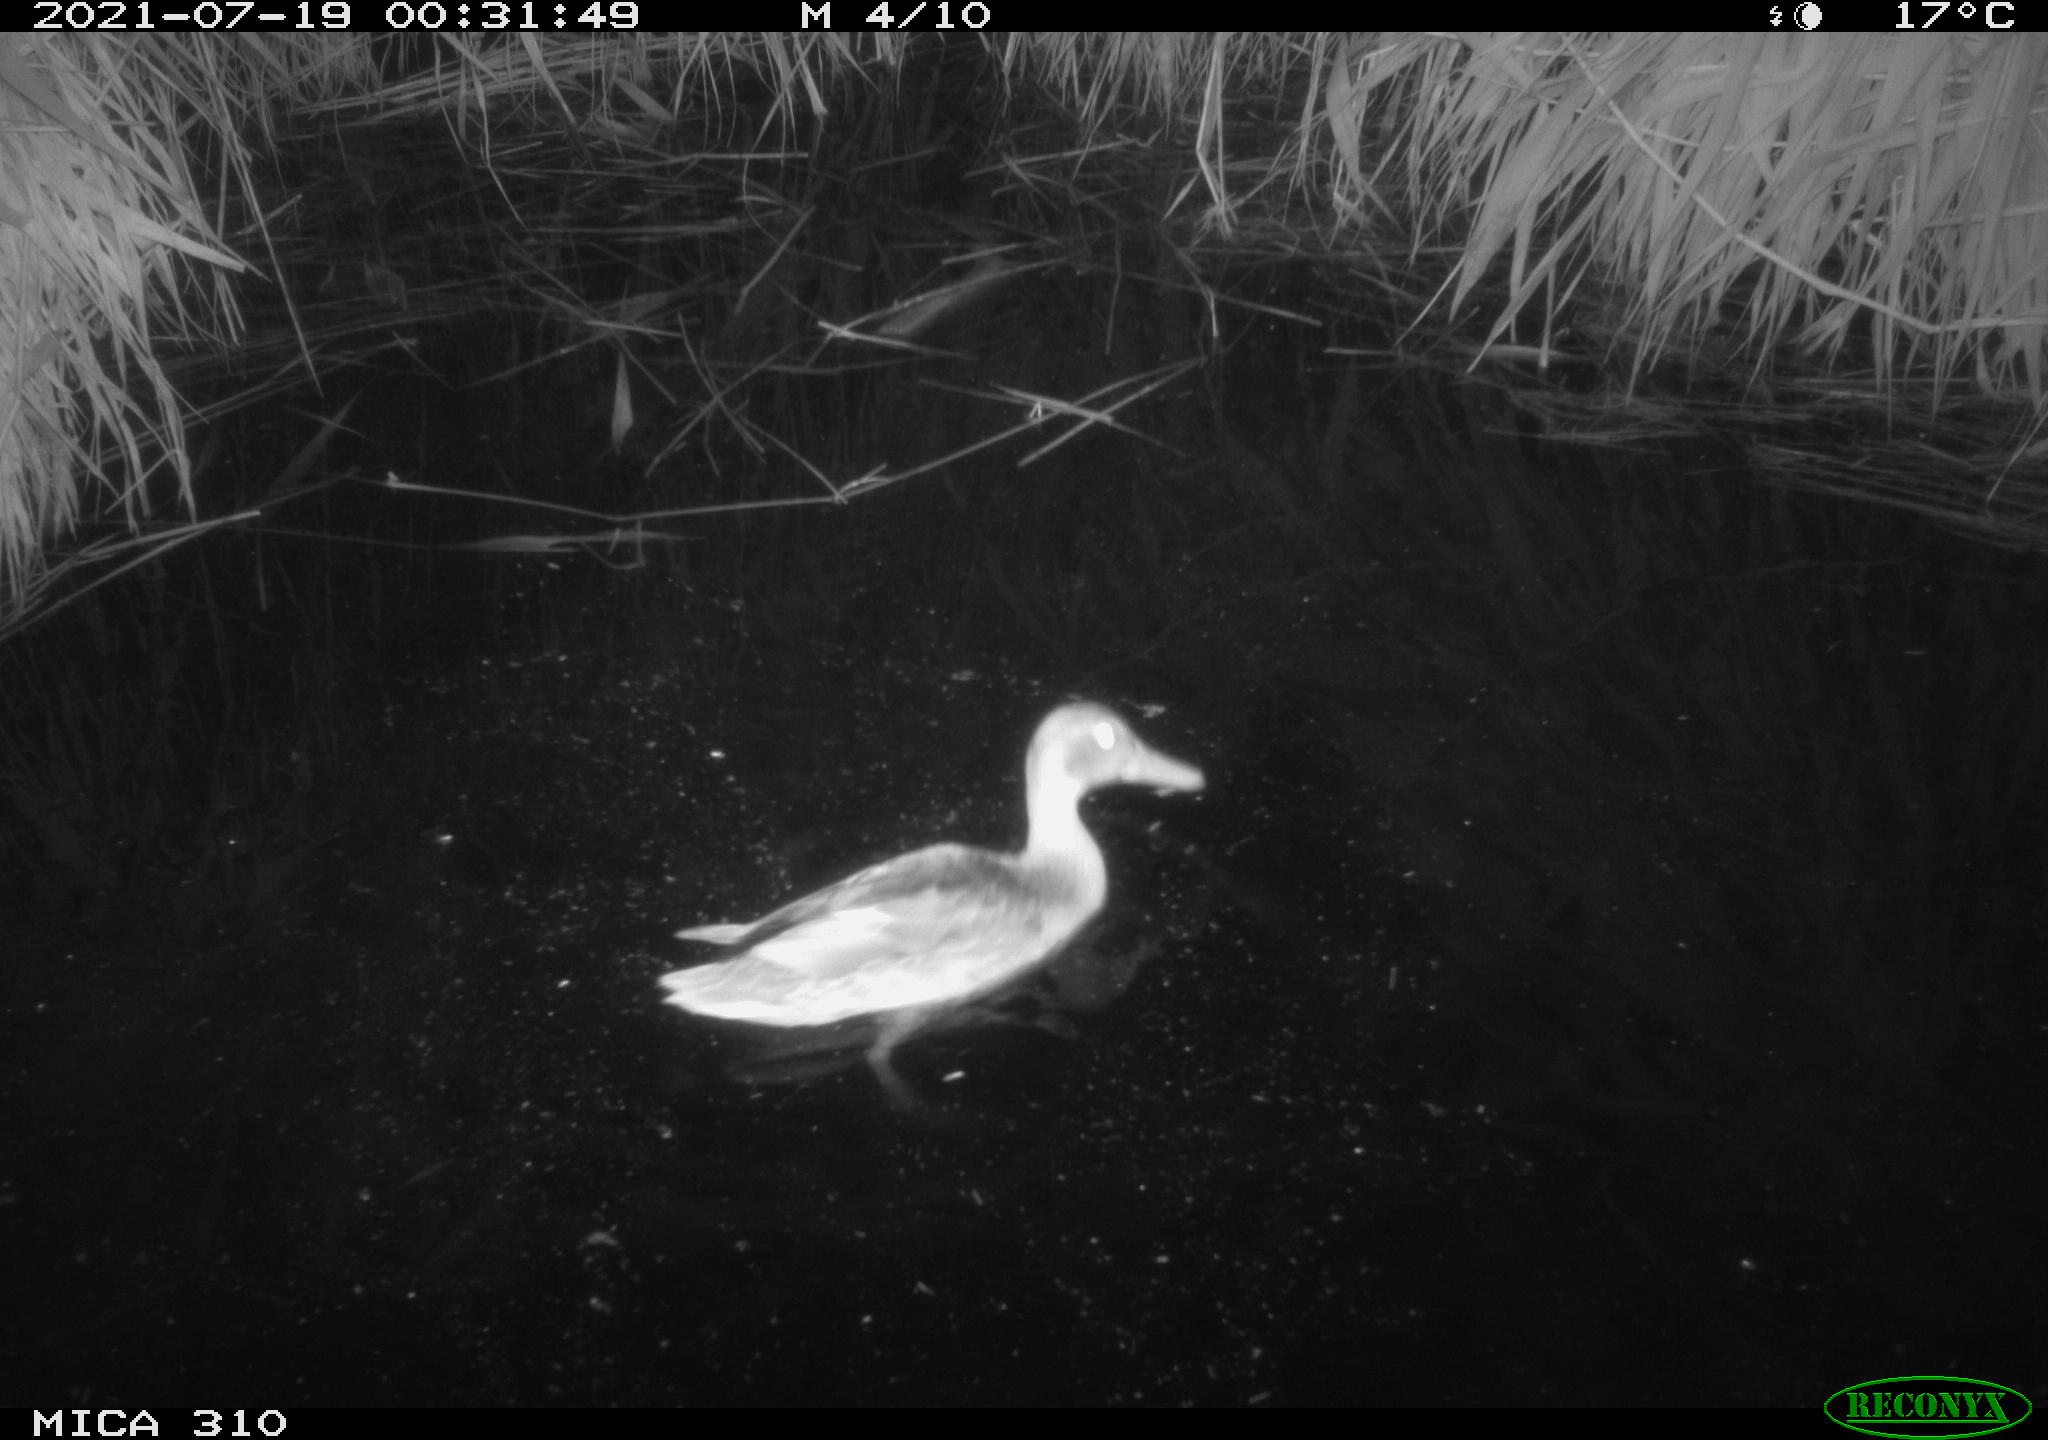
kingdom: Animalia
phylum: Chordata
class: Aves
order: Anseriformes
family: Anatidae
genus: Anas
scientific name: Anas platyrhynchos
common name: Mallard
